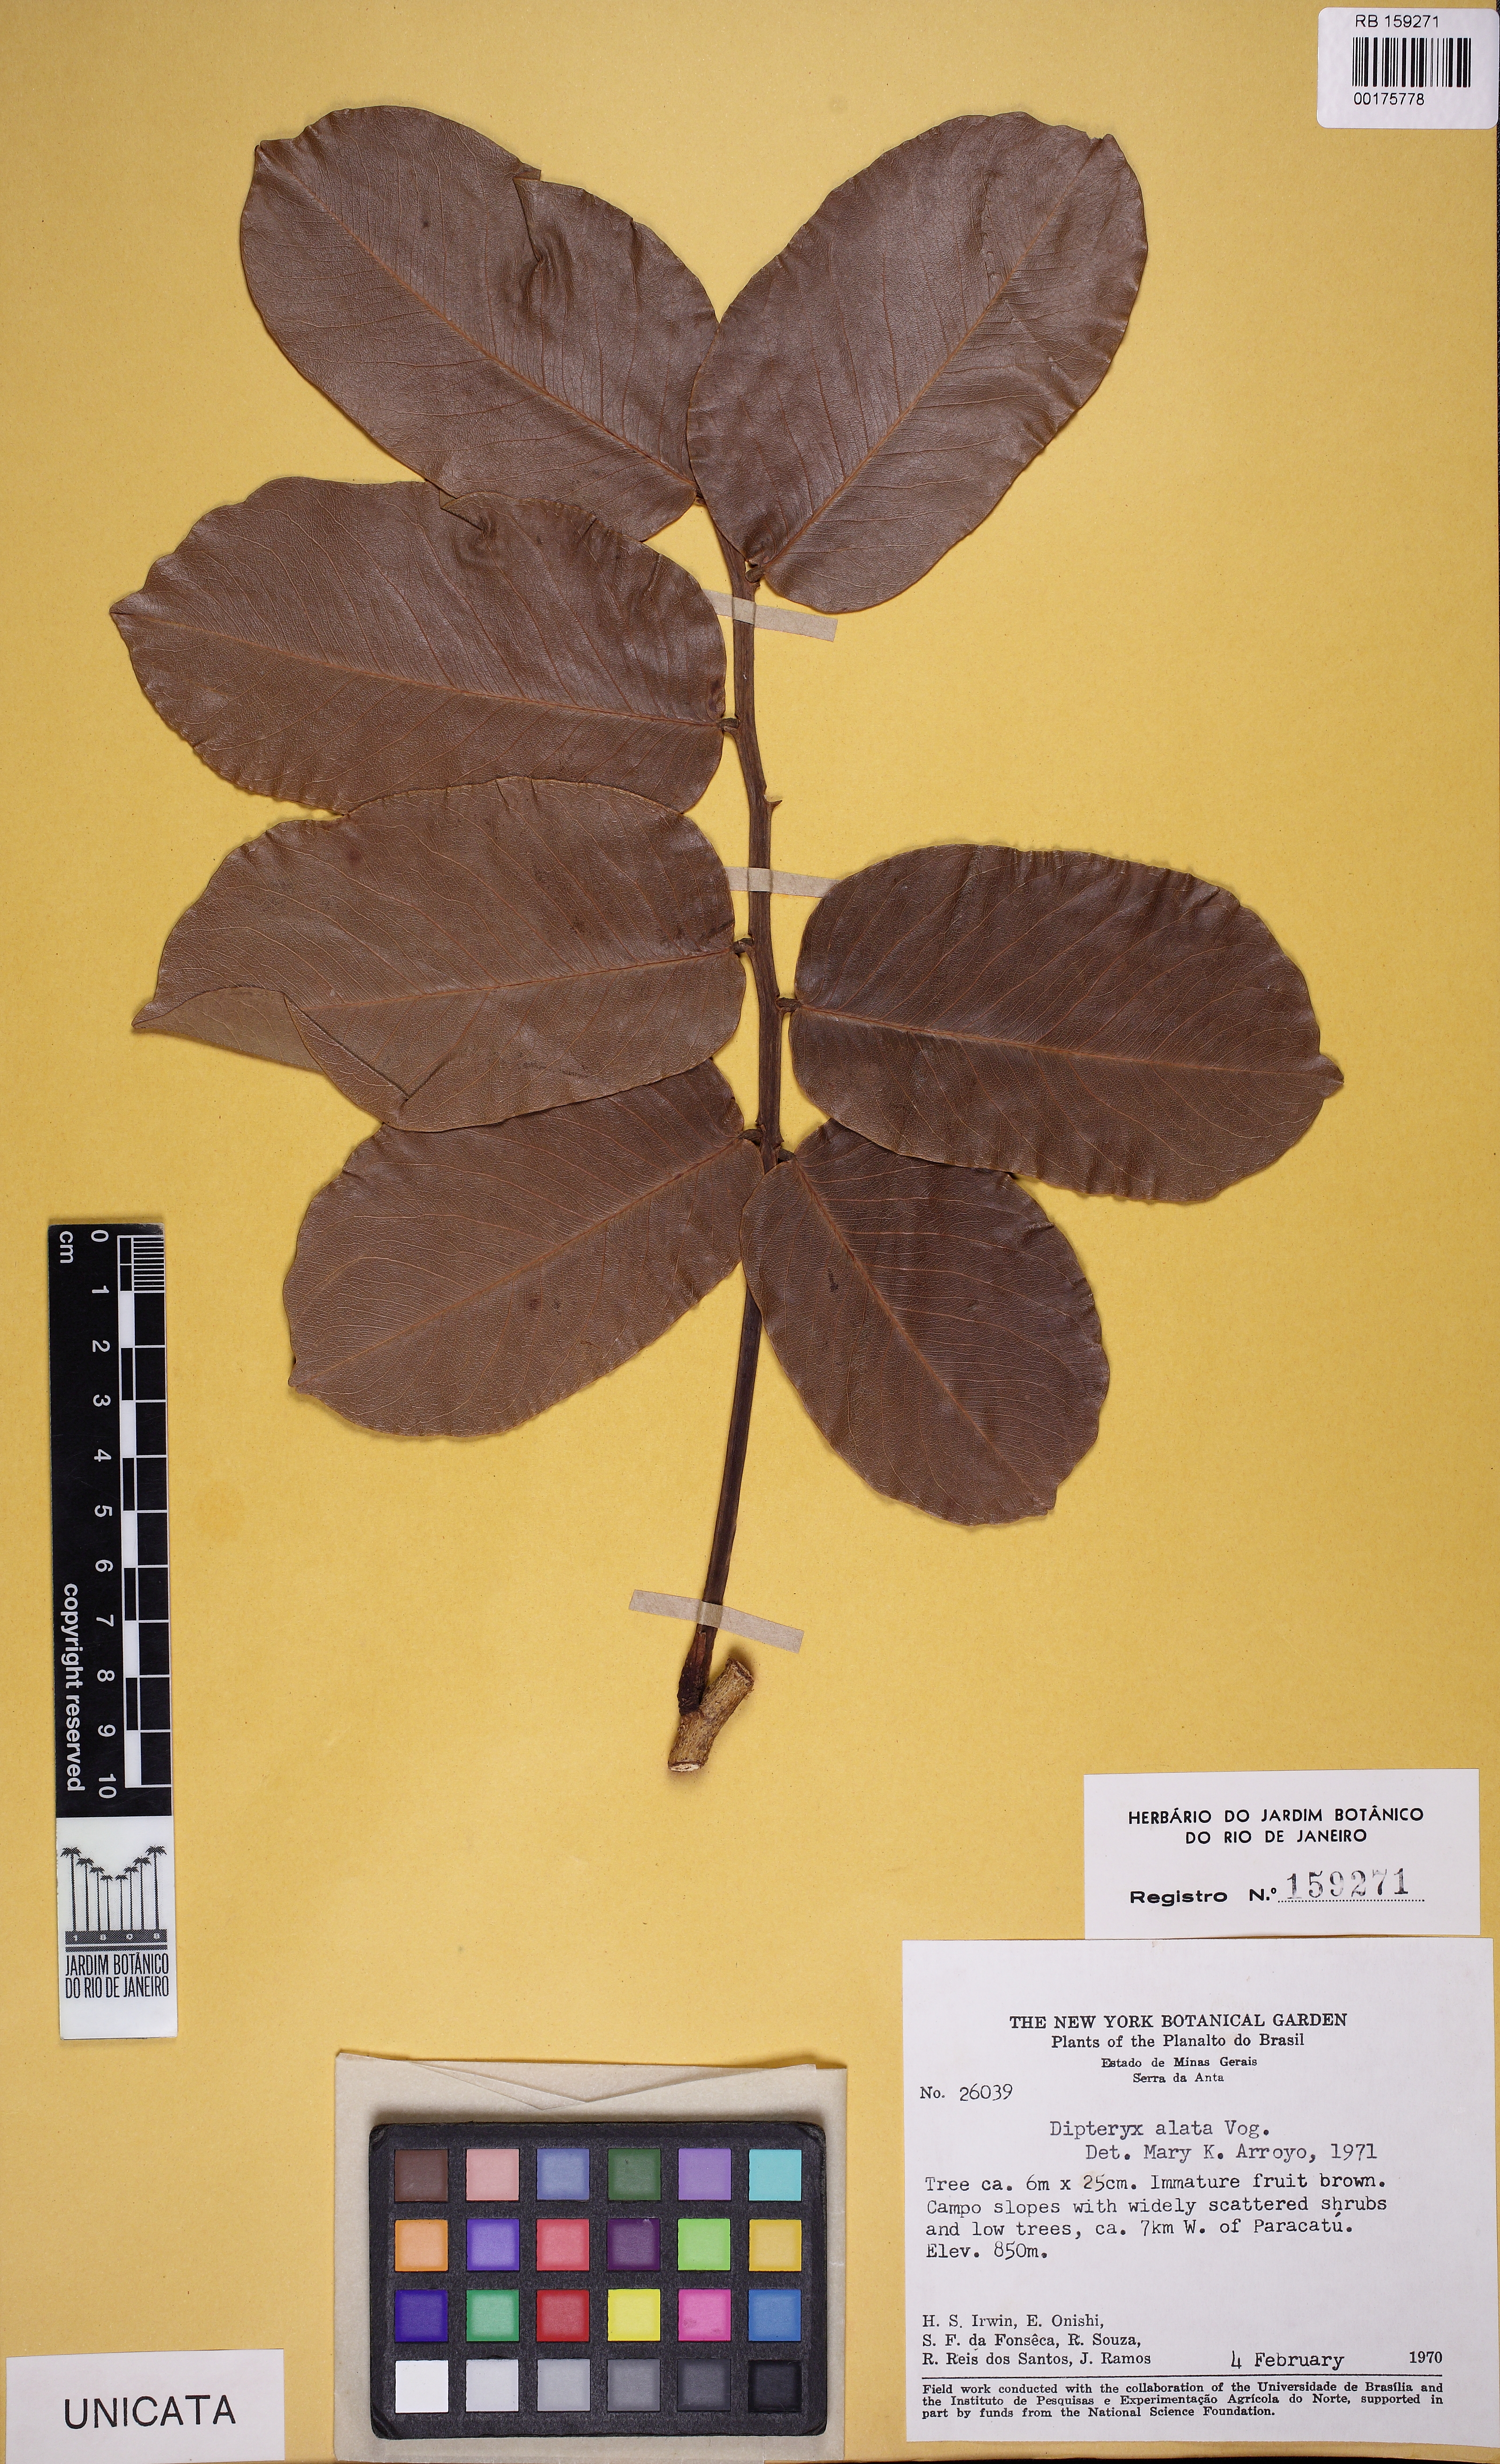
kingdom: Plantae
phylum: Tracheophyta
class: Magnoliopsida
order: Fabales
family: Fabaceae
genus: Dipteryx
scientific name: Dipteryx alata
